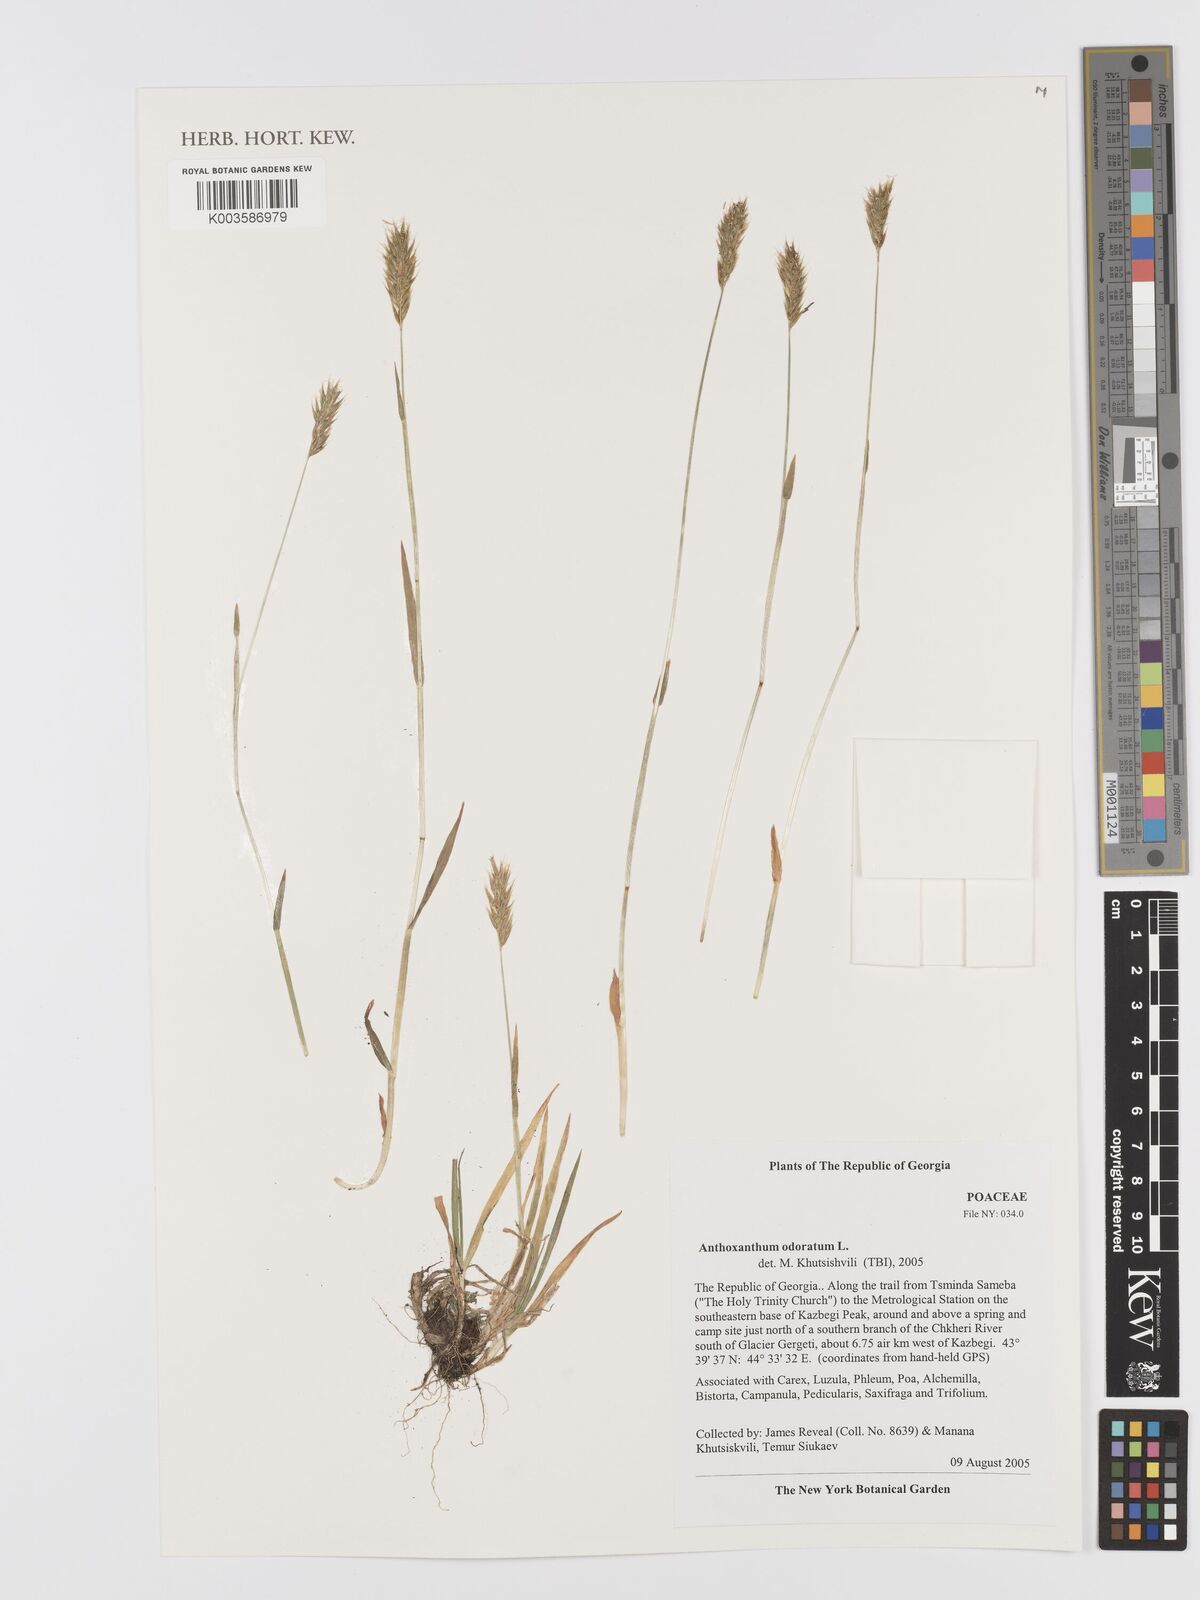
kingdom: Plantae
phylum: Tracheophyta
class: Liliopsida
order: Poales
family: Poaceae
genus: Anthoxanthum
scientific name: Anthoxanthum odoratum
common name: Sweet vernalgrass
